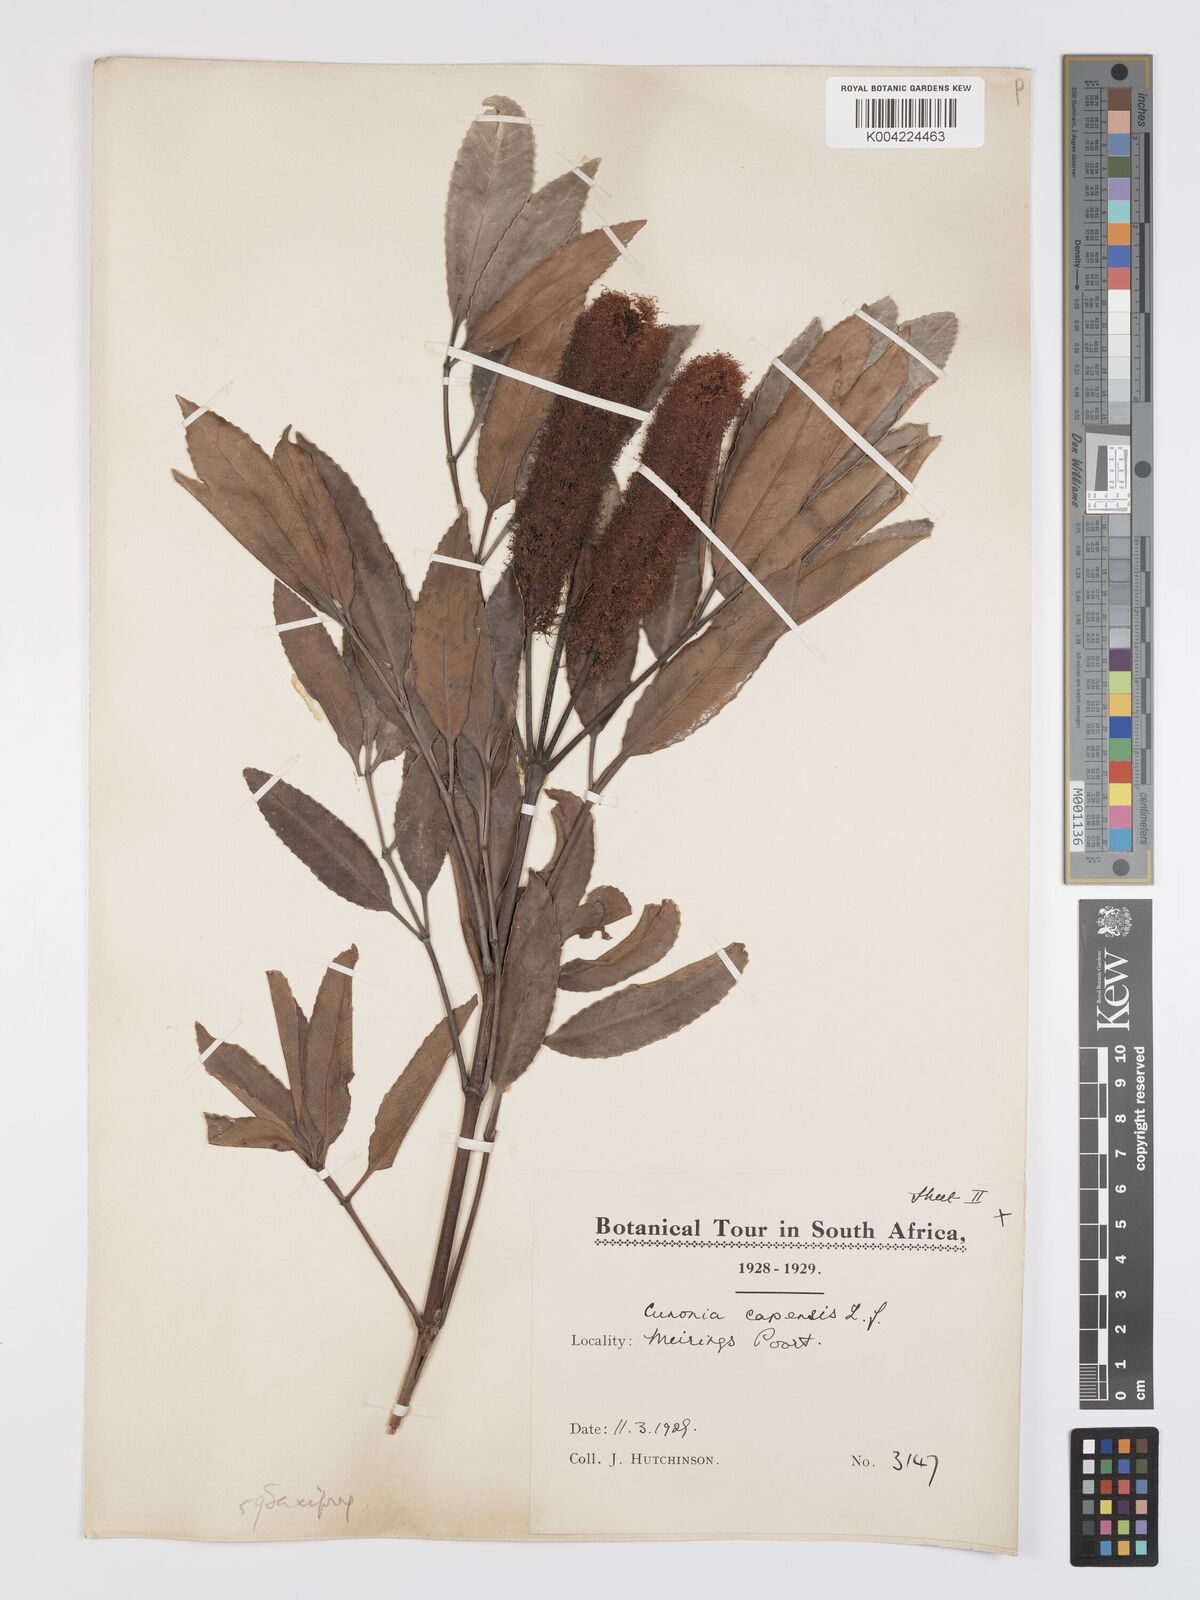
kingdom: Plantae
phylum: Tracheophyta
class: Magnoliopsida
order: Oxalidales
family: Cunoniaceae
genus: Cunonia
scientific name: Cunonia capensis
